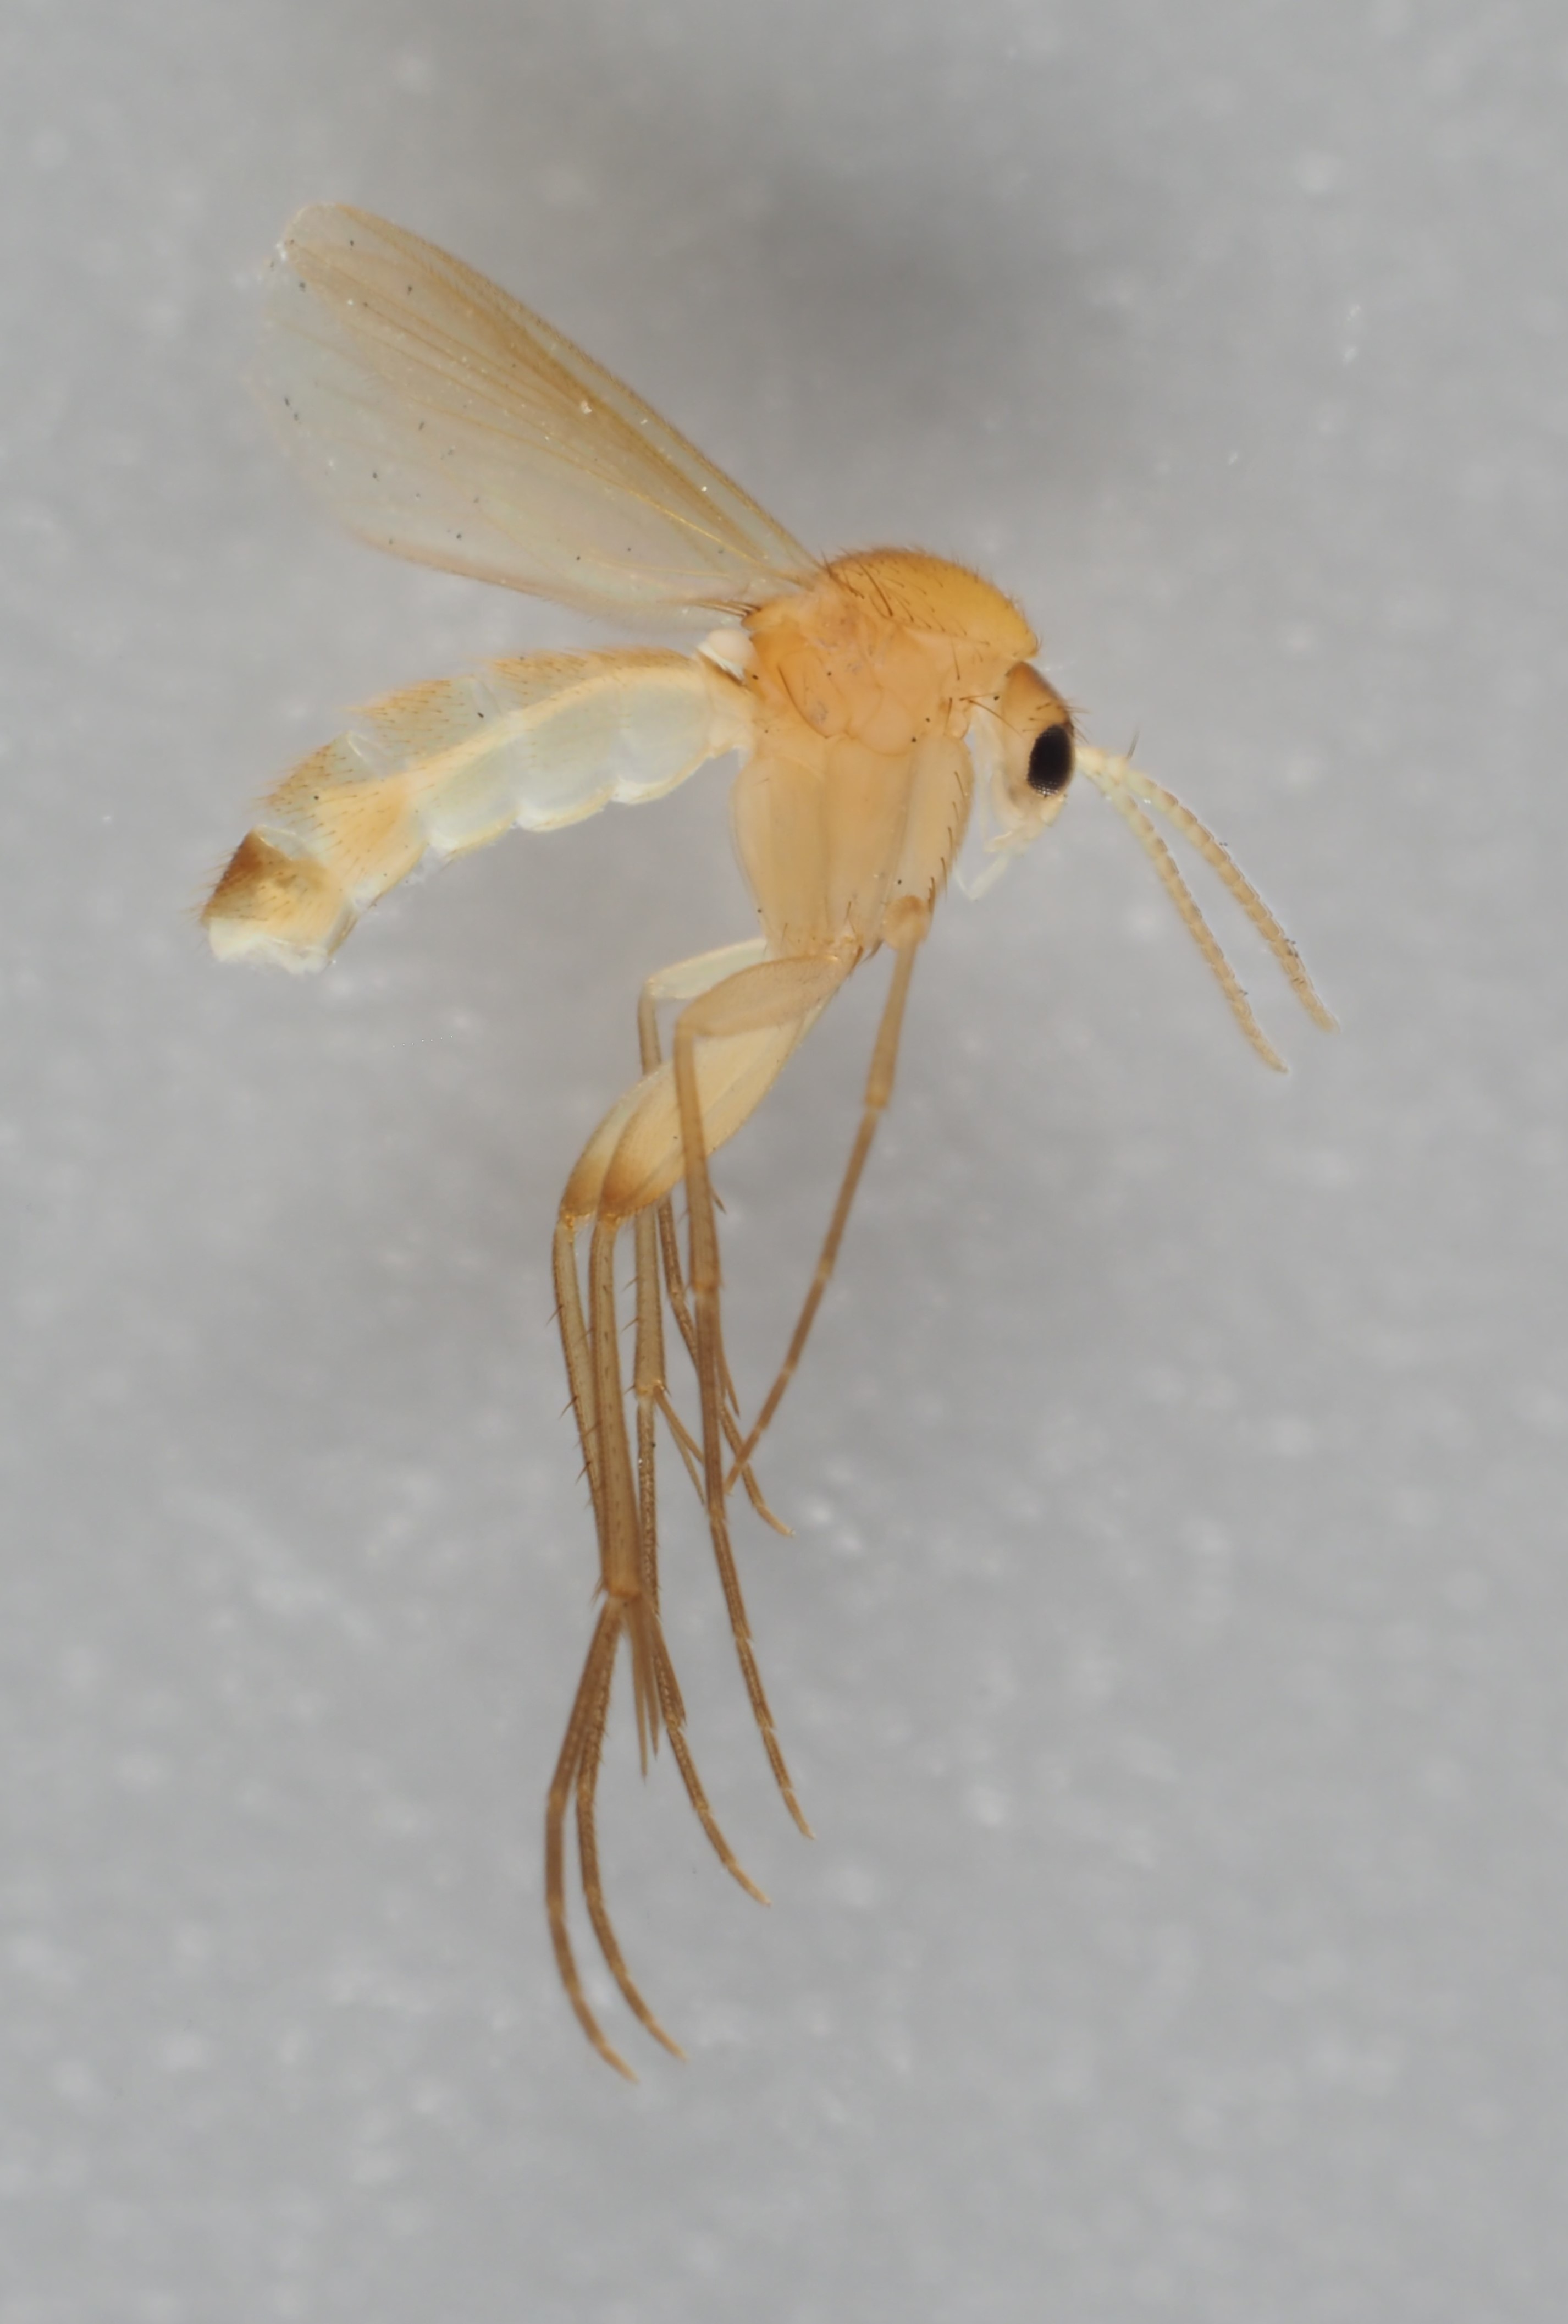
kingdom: Animalia
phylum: Arthropoda
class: Insecta
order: Diptera
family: Mycetophilidae
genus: Brevicornu
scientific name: Brevicornu serenum
